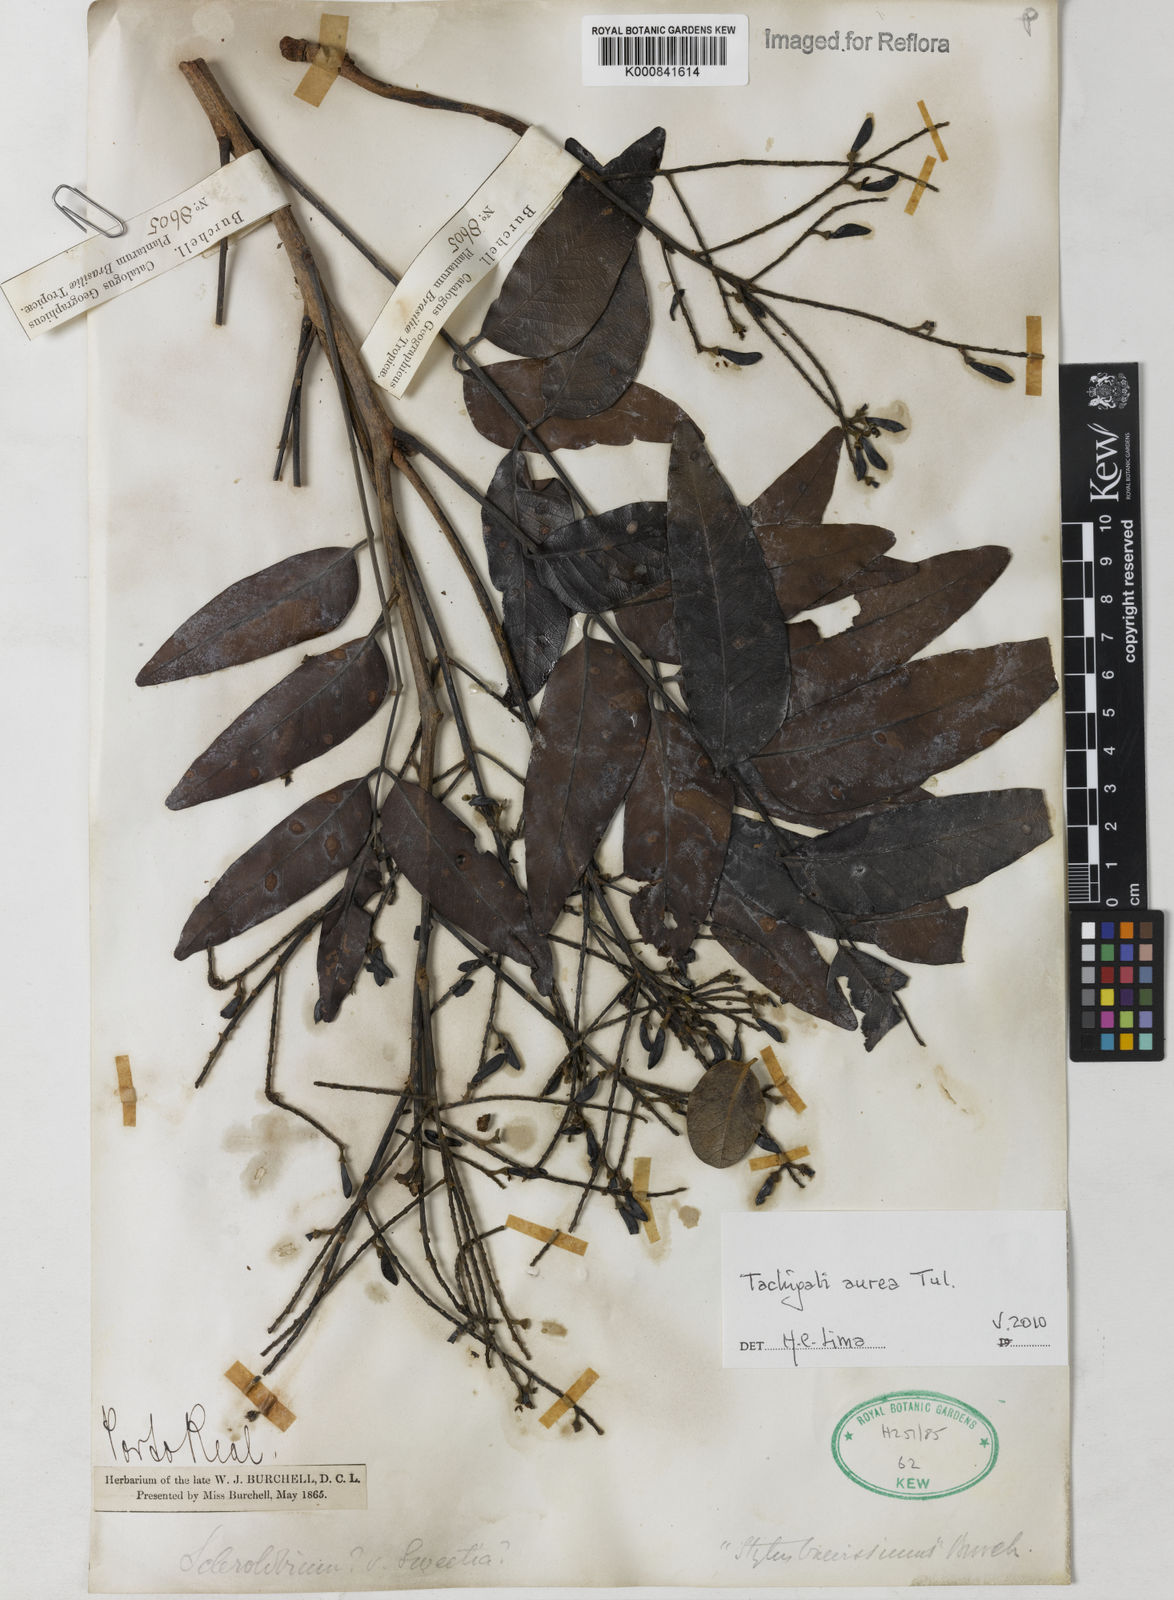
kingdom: Plantae
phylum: Tracheophyta
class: Magnoliopsida
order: Fabales
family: Fabaceae
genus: Tachigali
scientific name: Tachigali aurea
